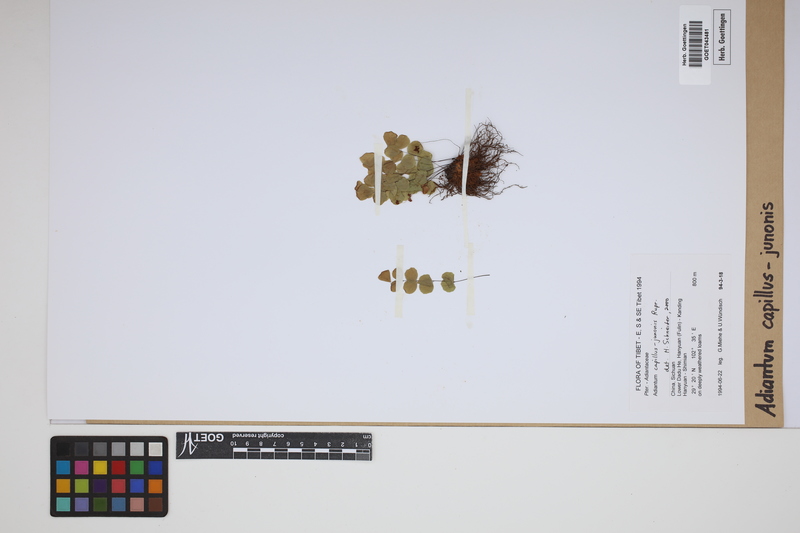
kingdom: Plantae
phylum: Tracheophyta
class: Polypodiopsida
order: Polypodiales
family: Pteridaceae
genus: Adiantum
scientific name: Adiantum capillus-junonis
